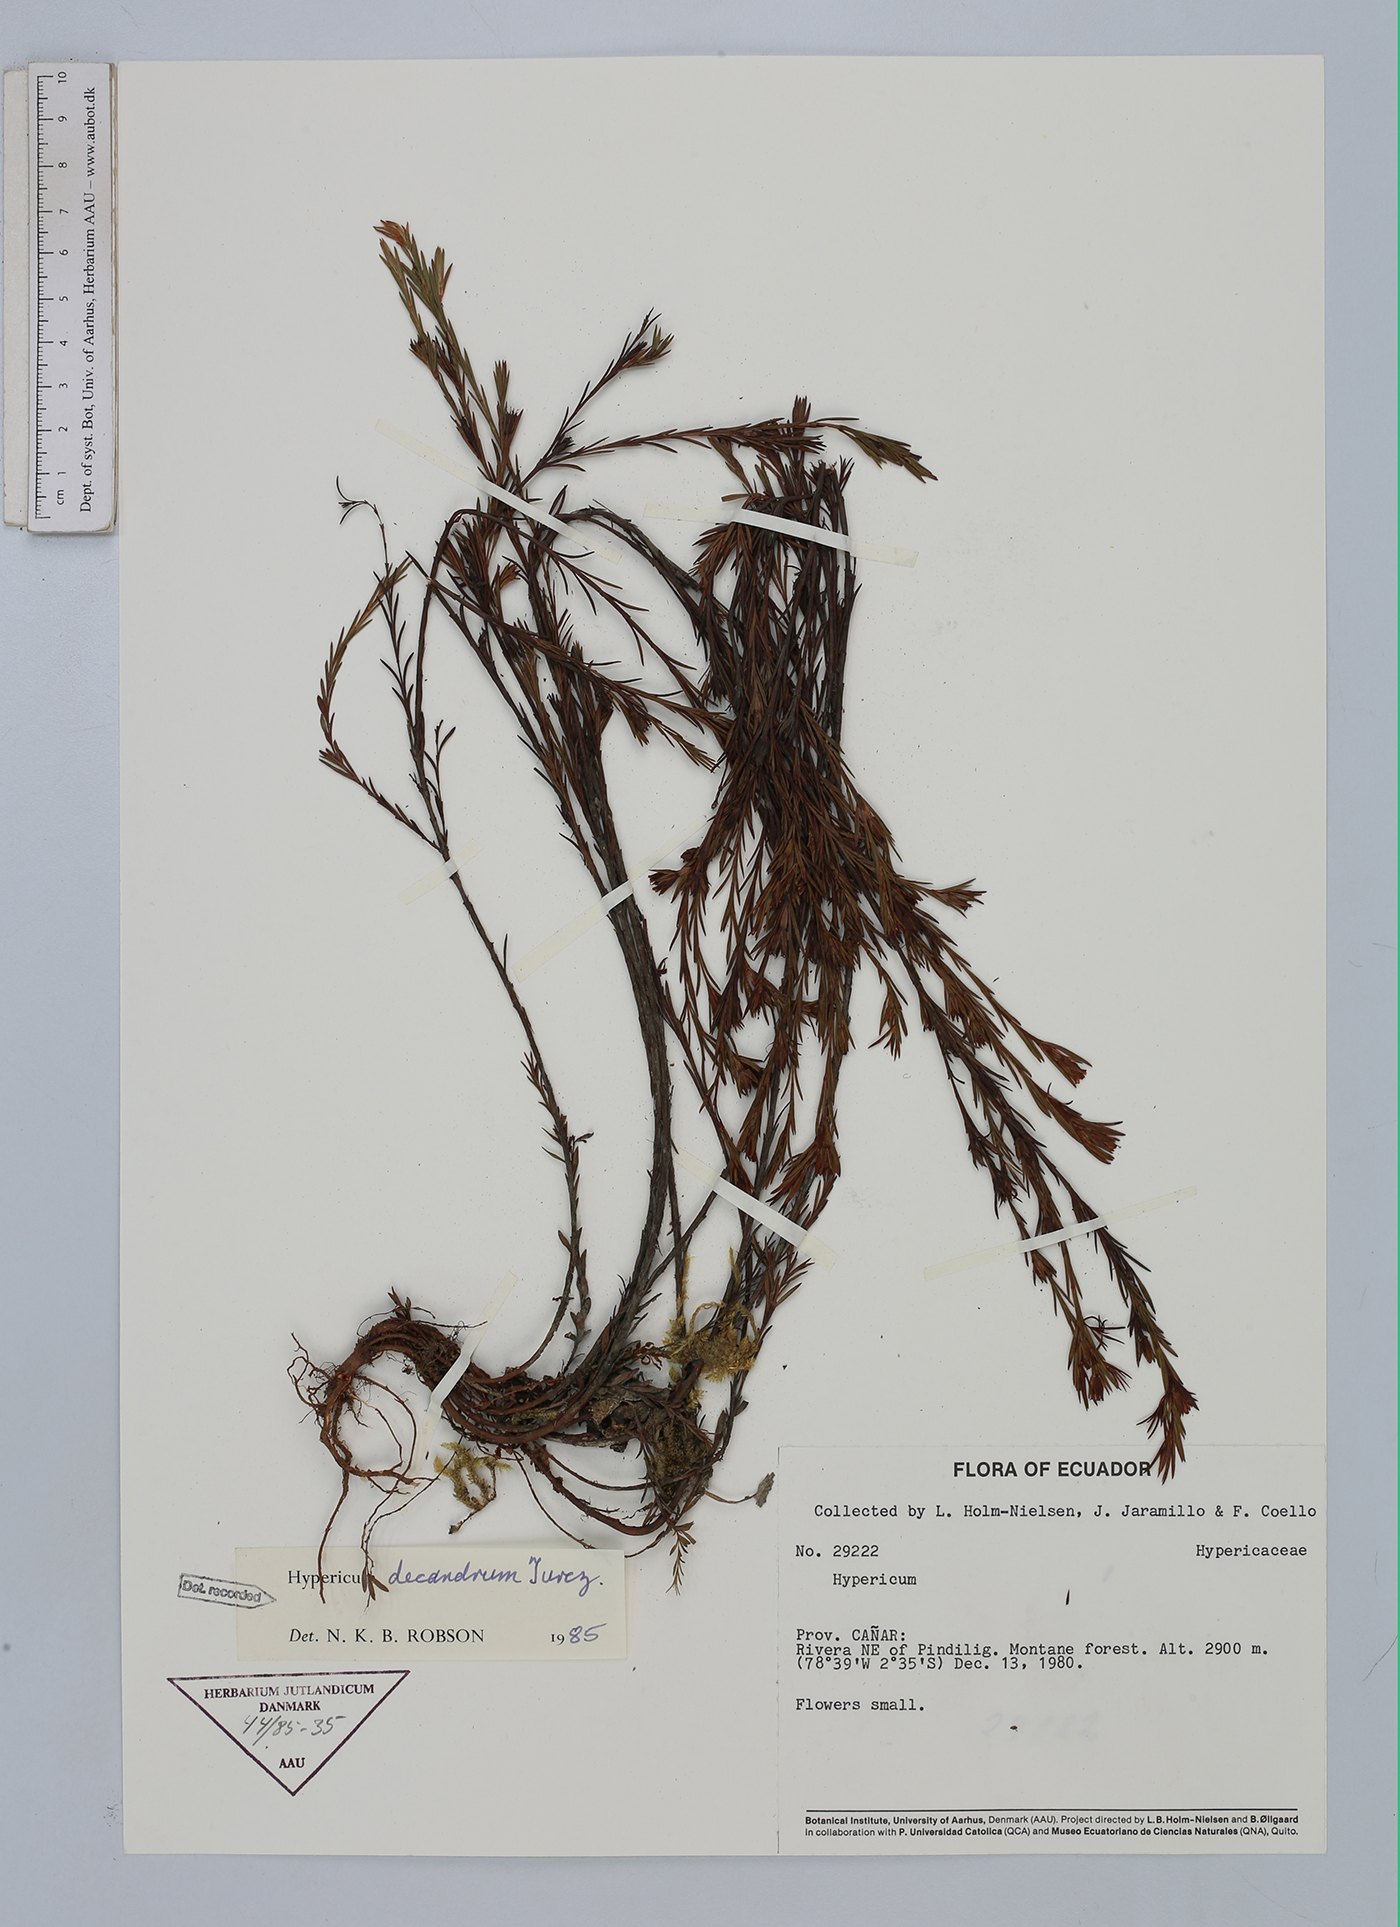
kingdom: Plantae
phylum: Tracheophyta
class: Magnoliopsida
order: Malpighiales
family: Hypericaceae
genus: Hypericum
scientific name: Hypericum decandrum
